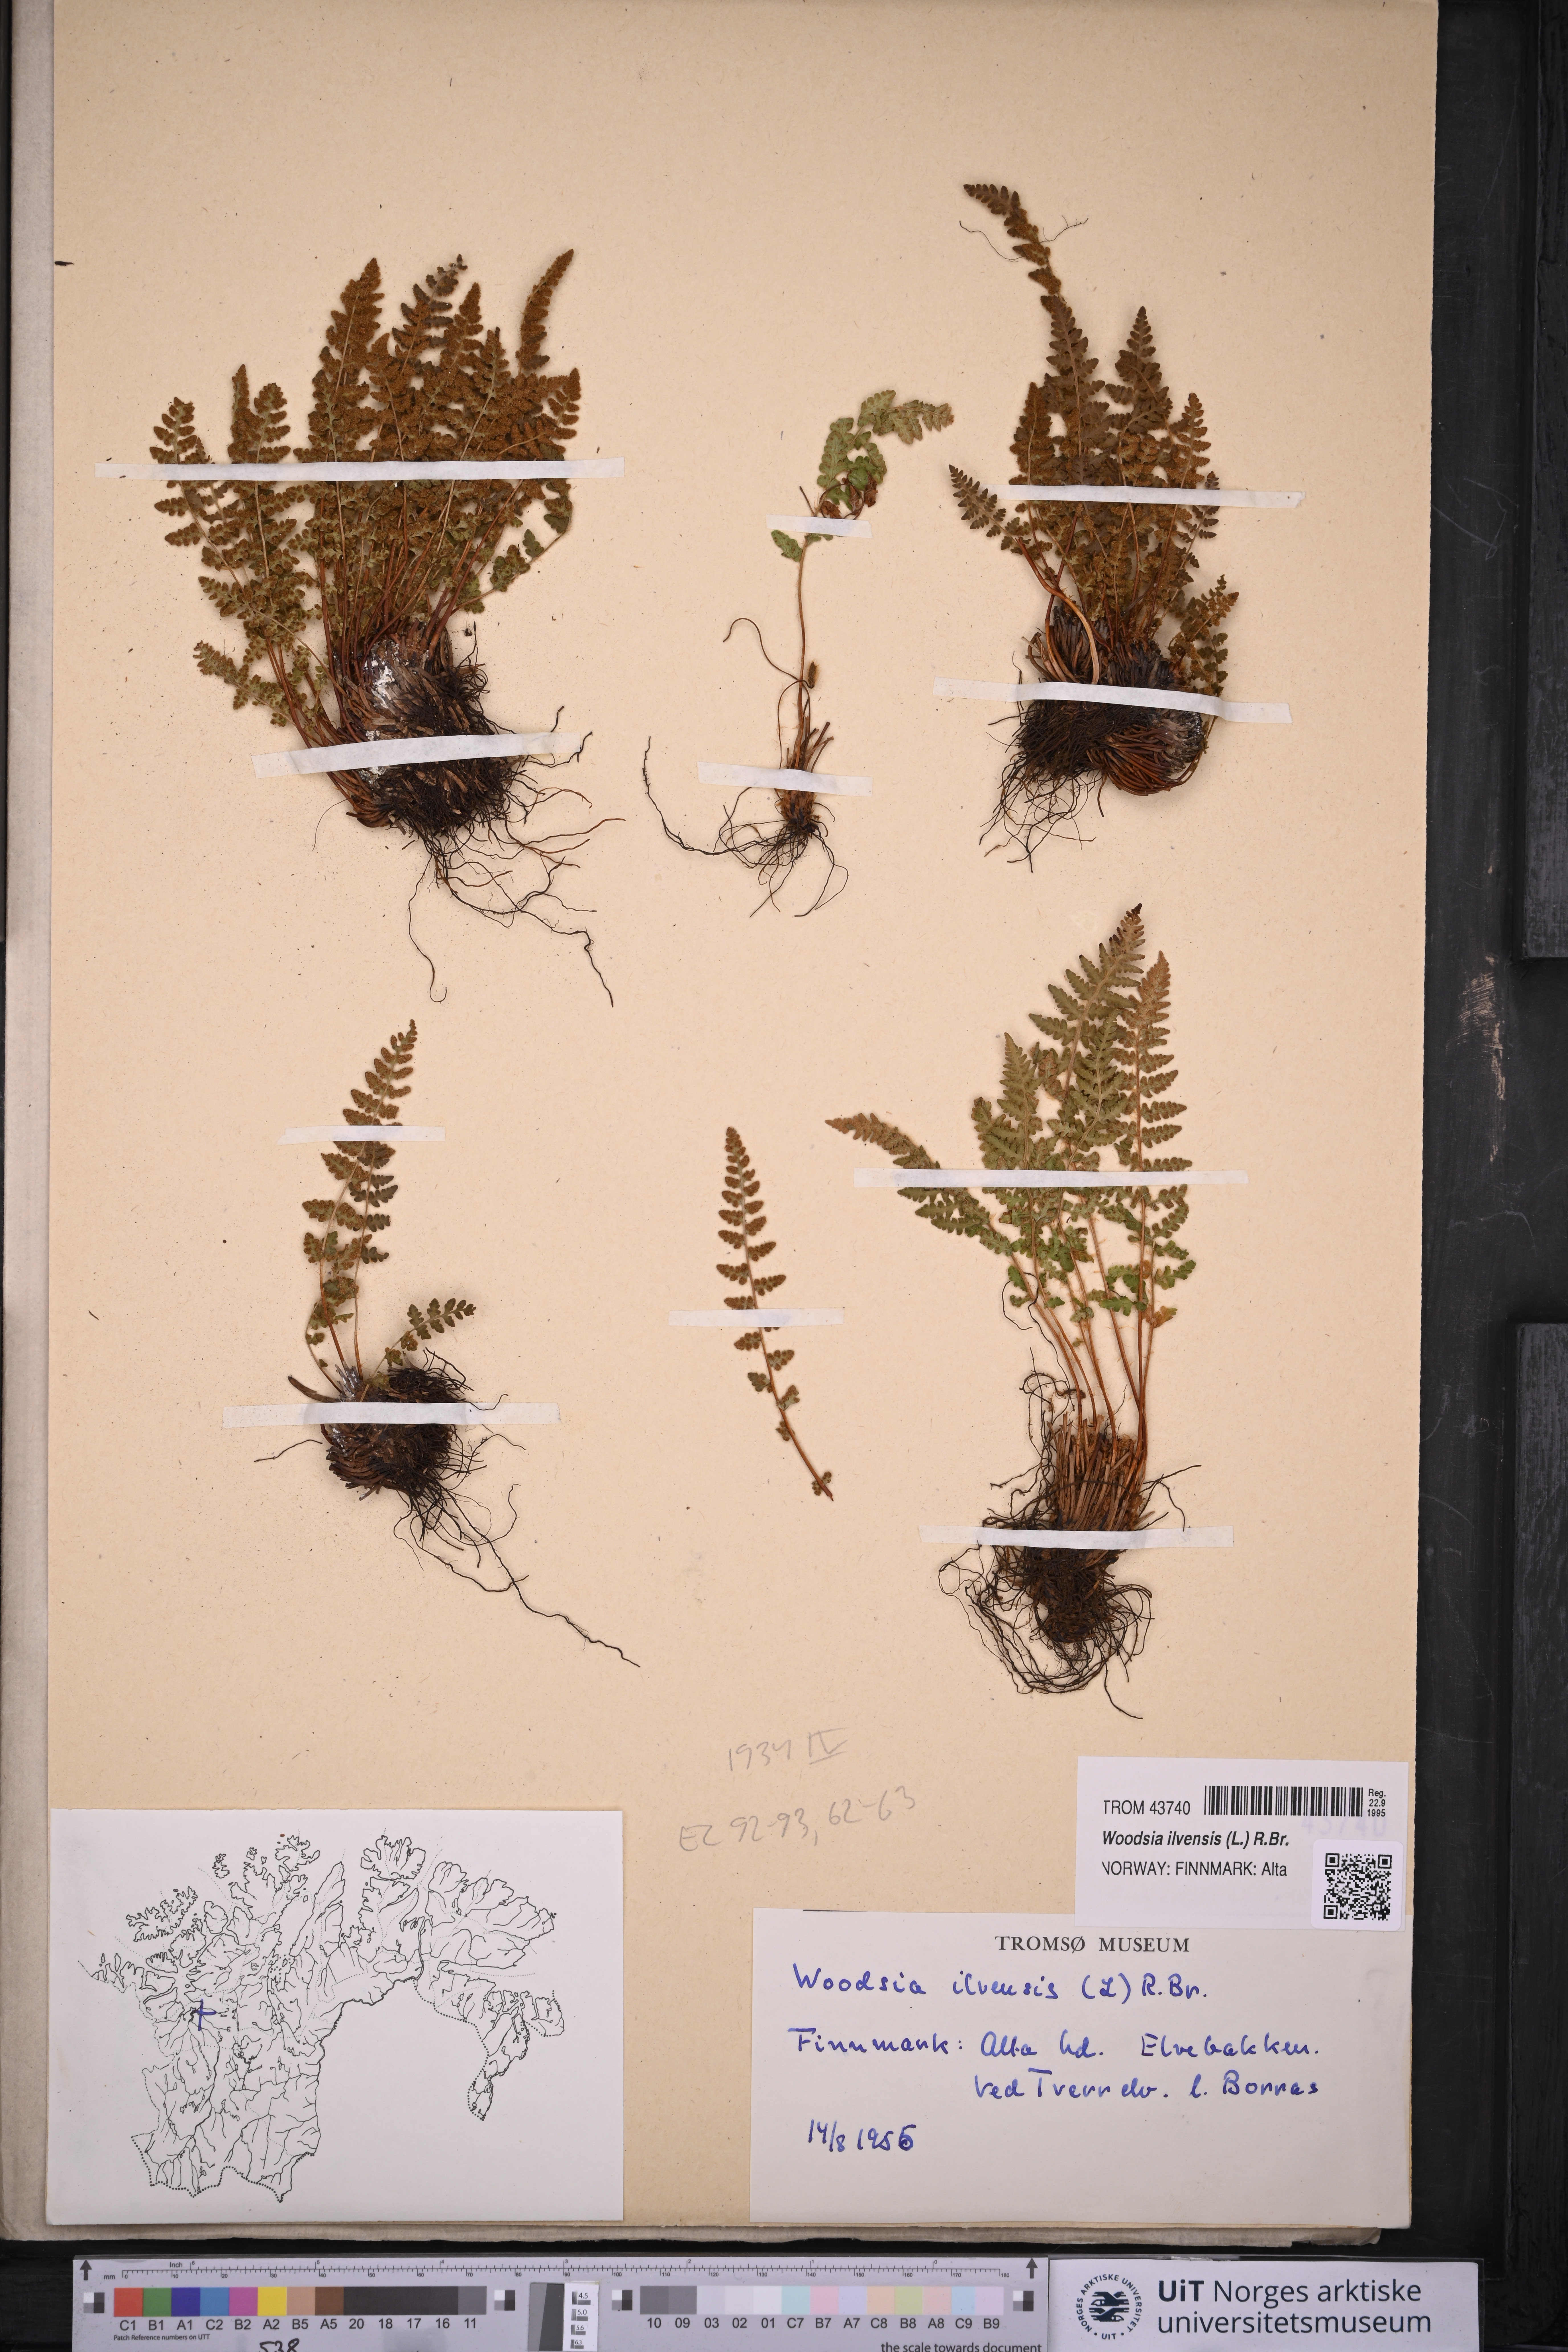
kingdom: Plantae
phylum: Tracheophyta
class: Polypodiopsida
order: Polypodiales
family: Woodsiaceae
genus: Woodsia
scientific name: Woodsia ilvensis
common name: Fragrant woodsia
